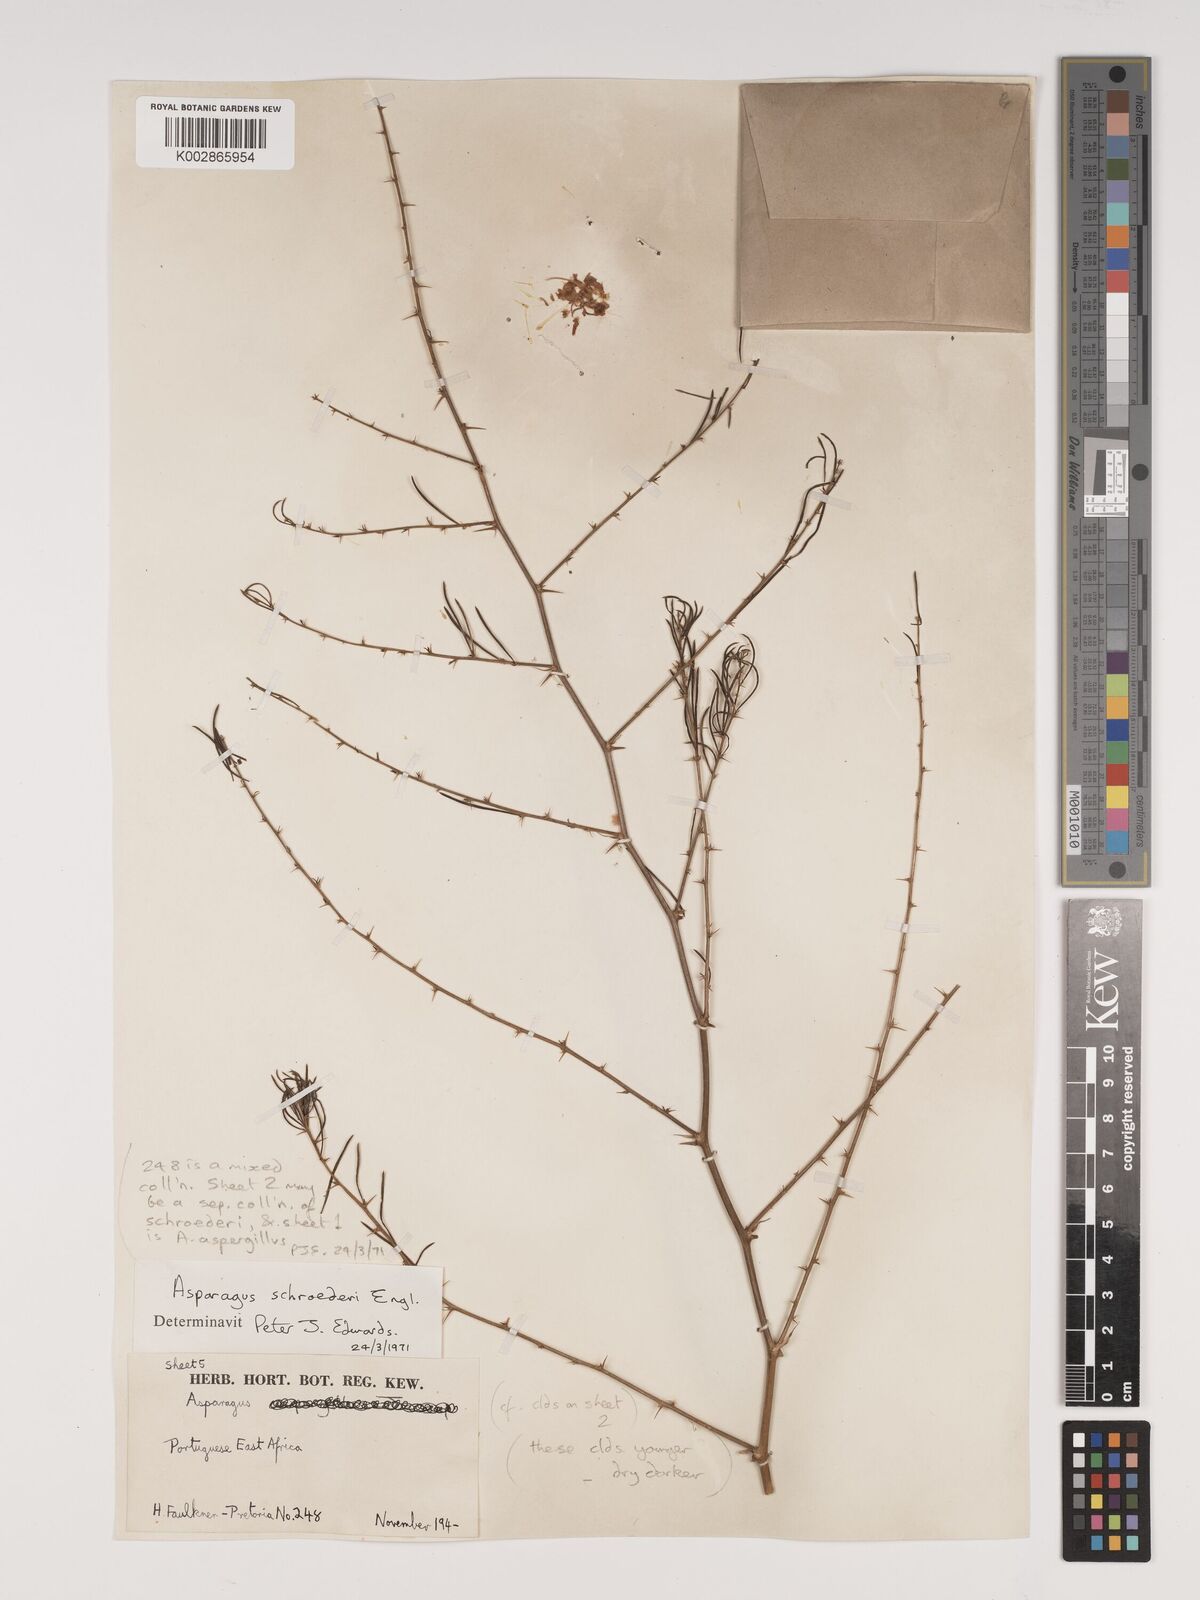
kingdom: Plantae
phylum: Tracheophyta
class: Liliopsida
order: Asparagales
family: Asparagaceae
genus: Asparagus
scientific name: Asparagus schroederi
